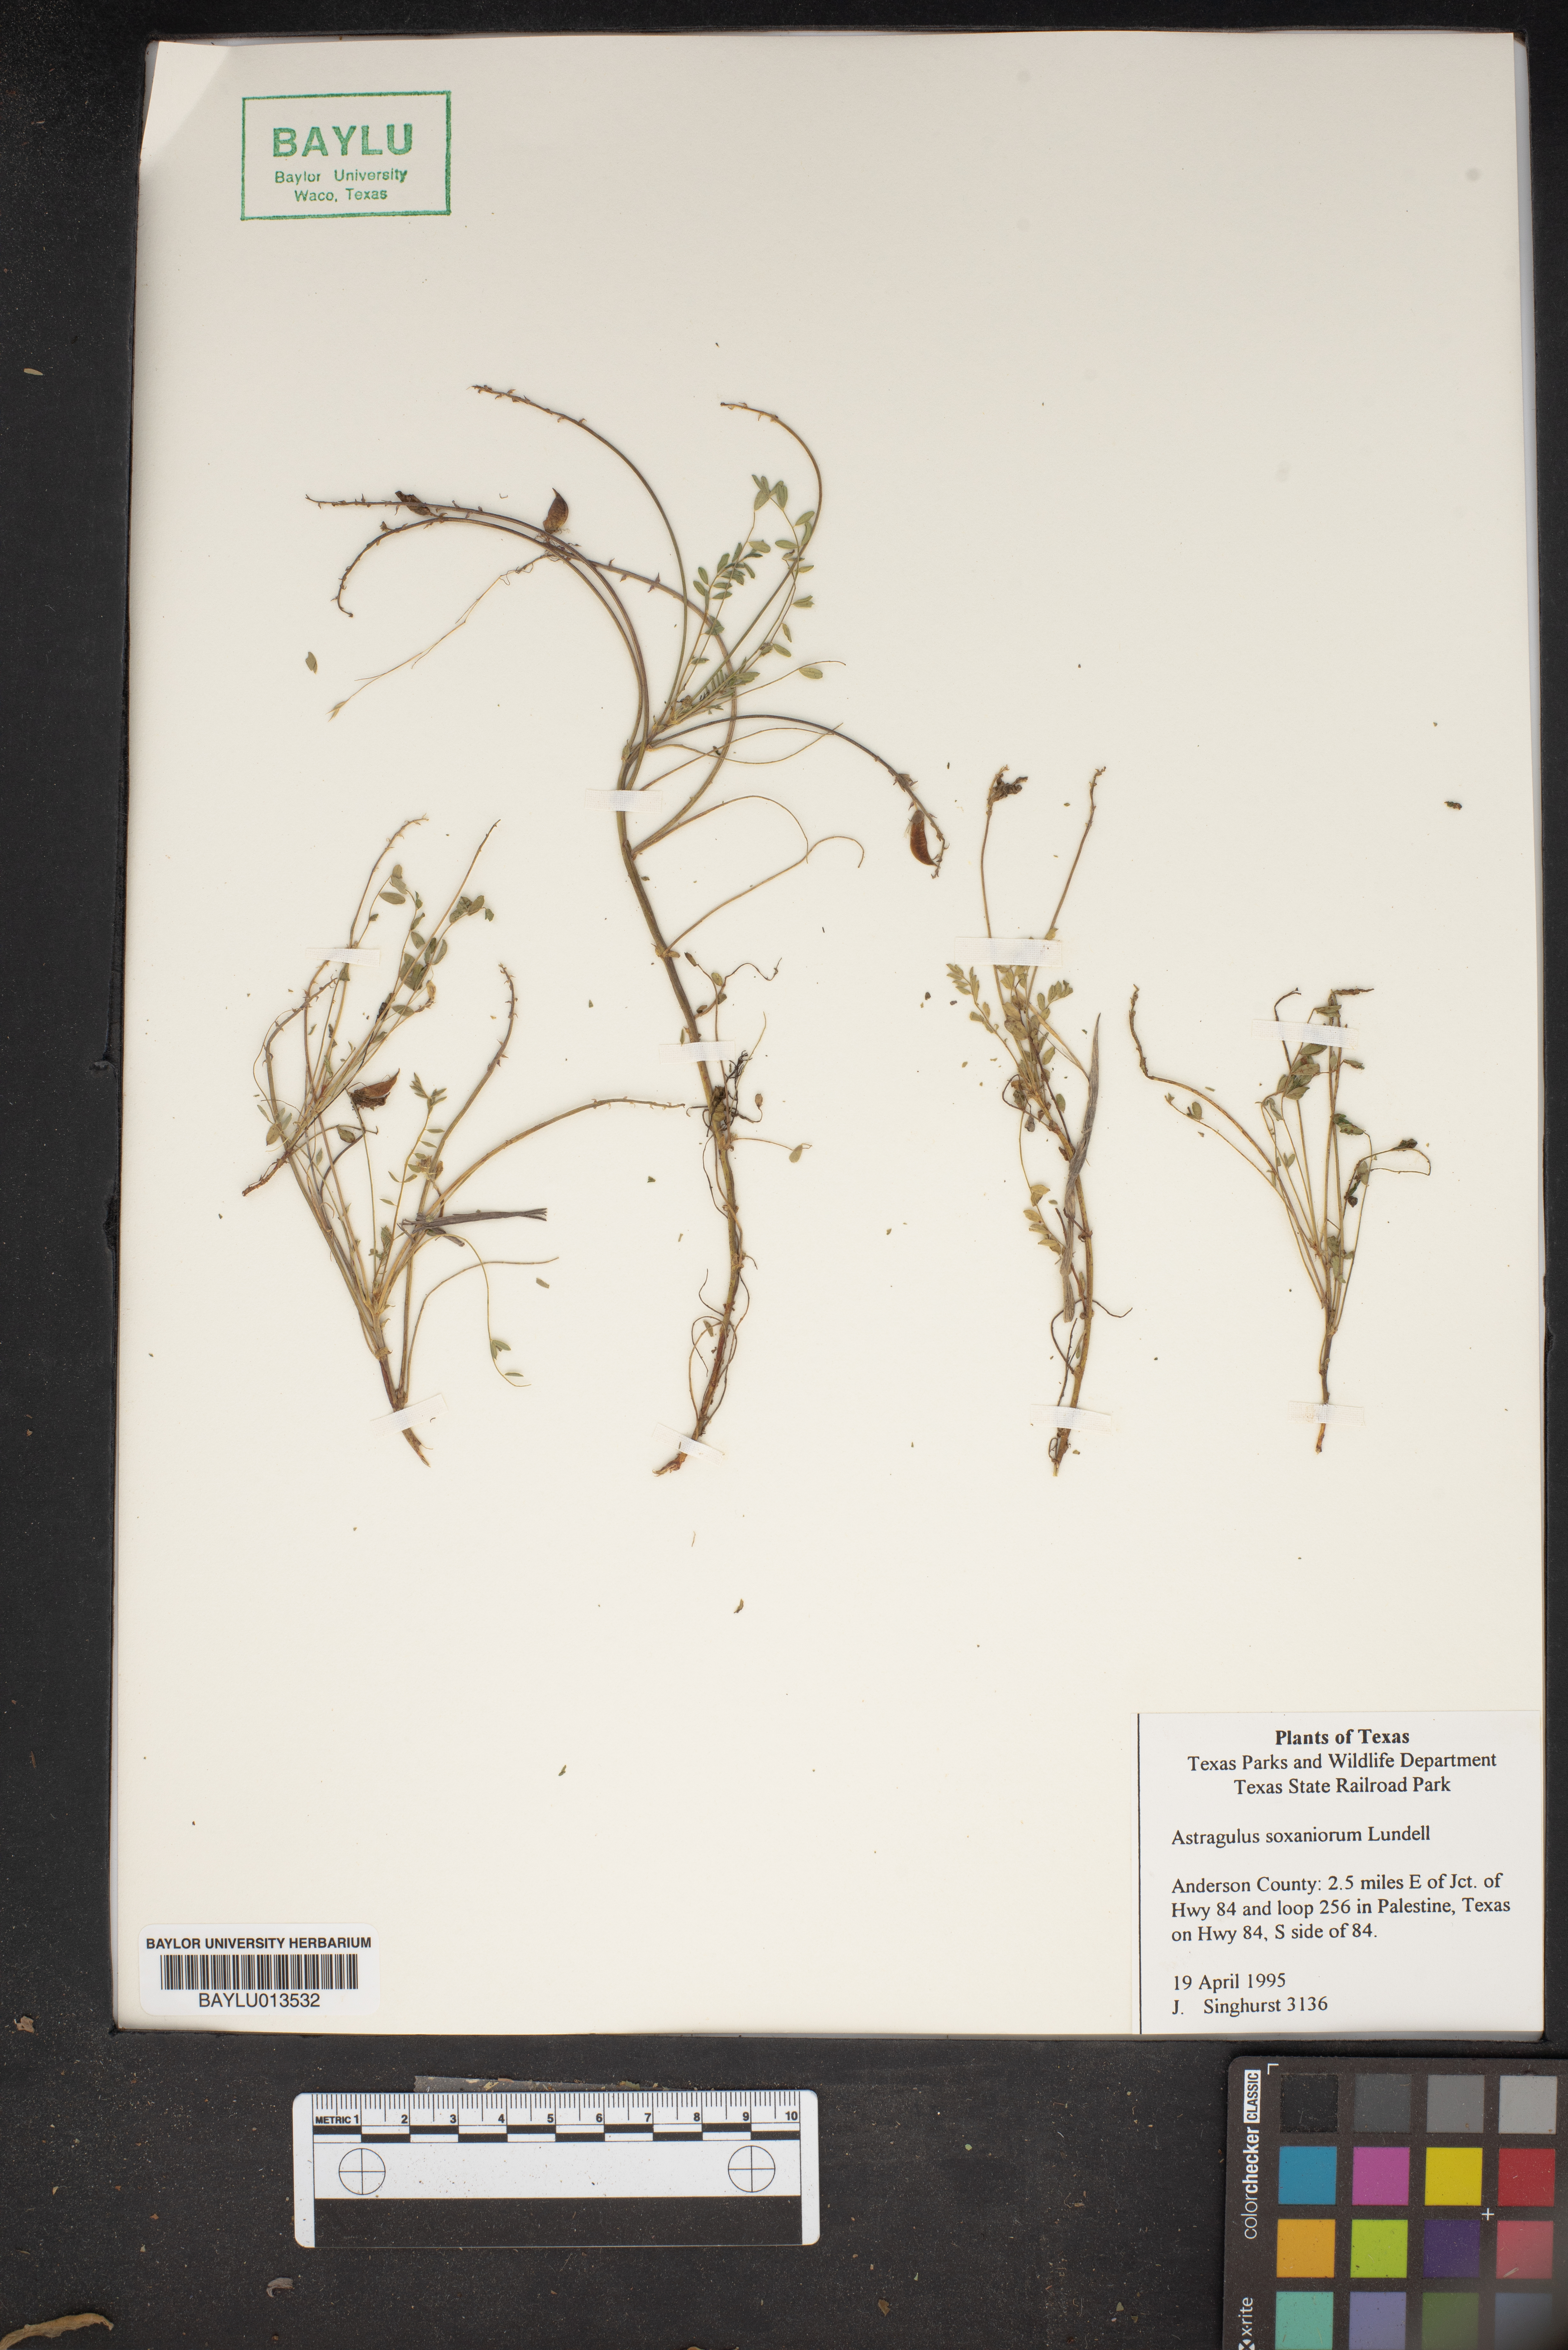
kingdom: Plantae
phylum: Tracheophyta
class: Magnoliopsida
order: Fabales
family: Fabaceae
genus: Astragalus
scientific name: Astragalus soxmaniorum
